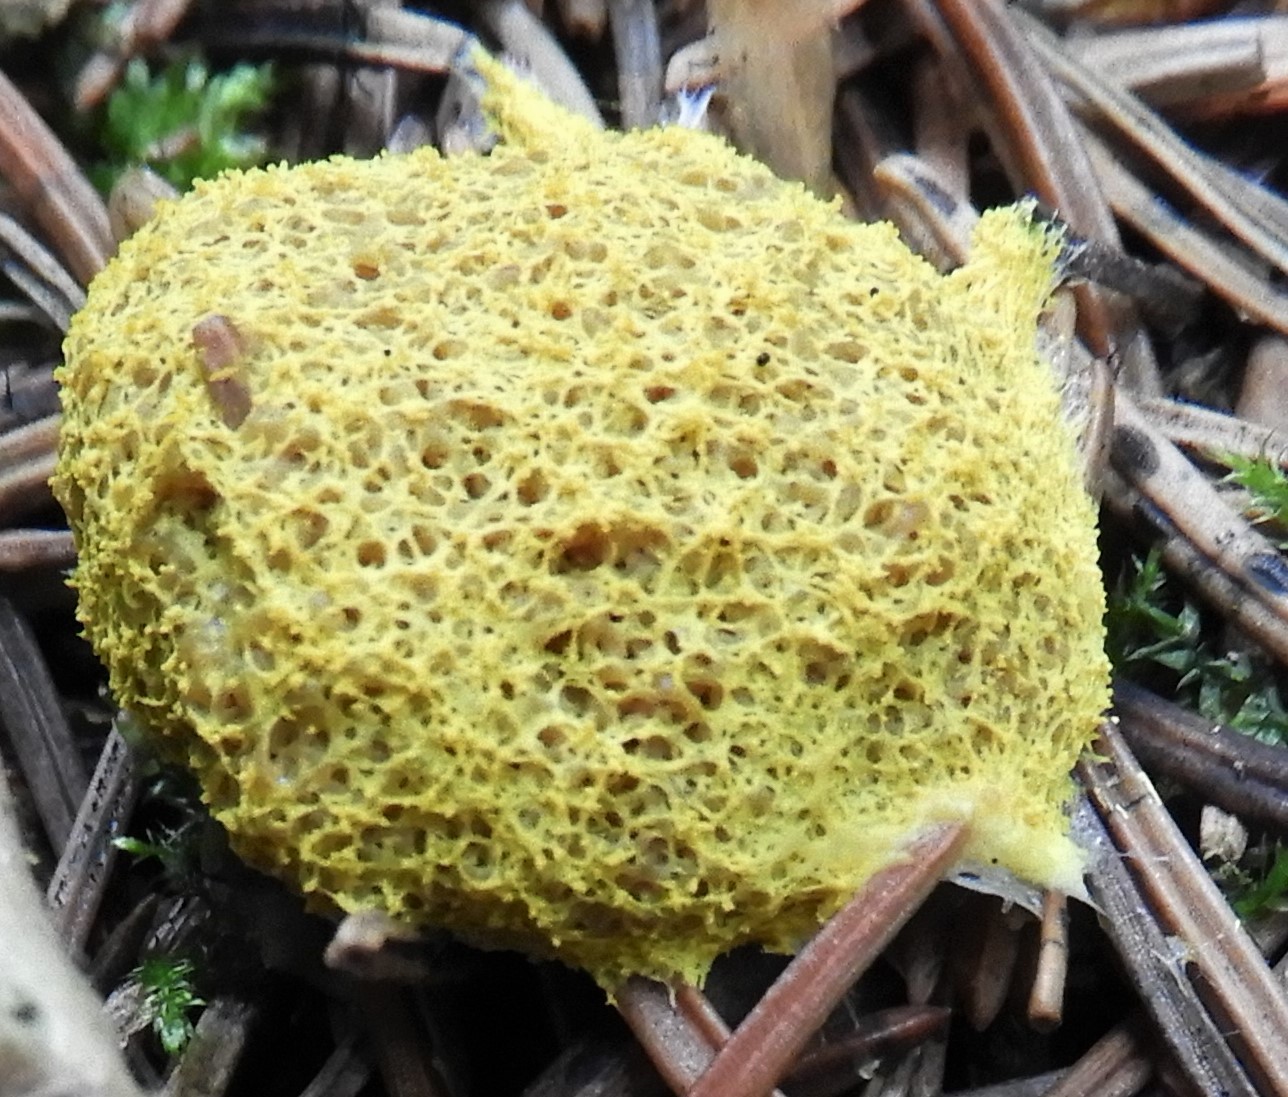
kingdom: Protozoa
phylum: Mycetozoa
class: Myxomycetes
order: Physarales
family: Physaraceae
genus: Fuligo
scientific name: Fuligo septica
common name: gul troldsmør
